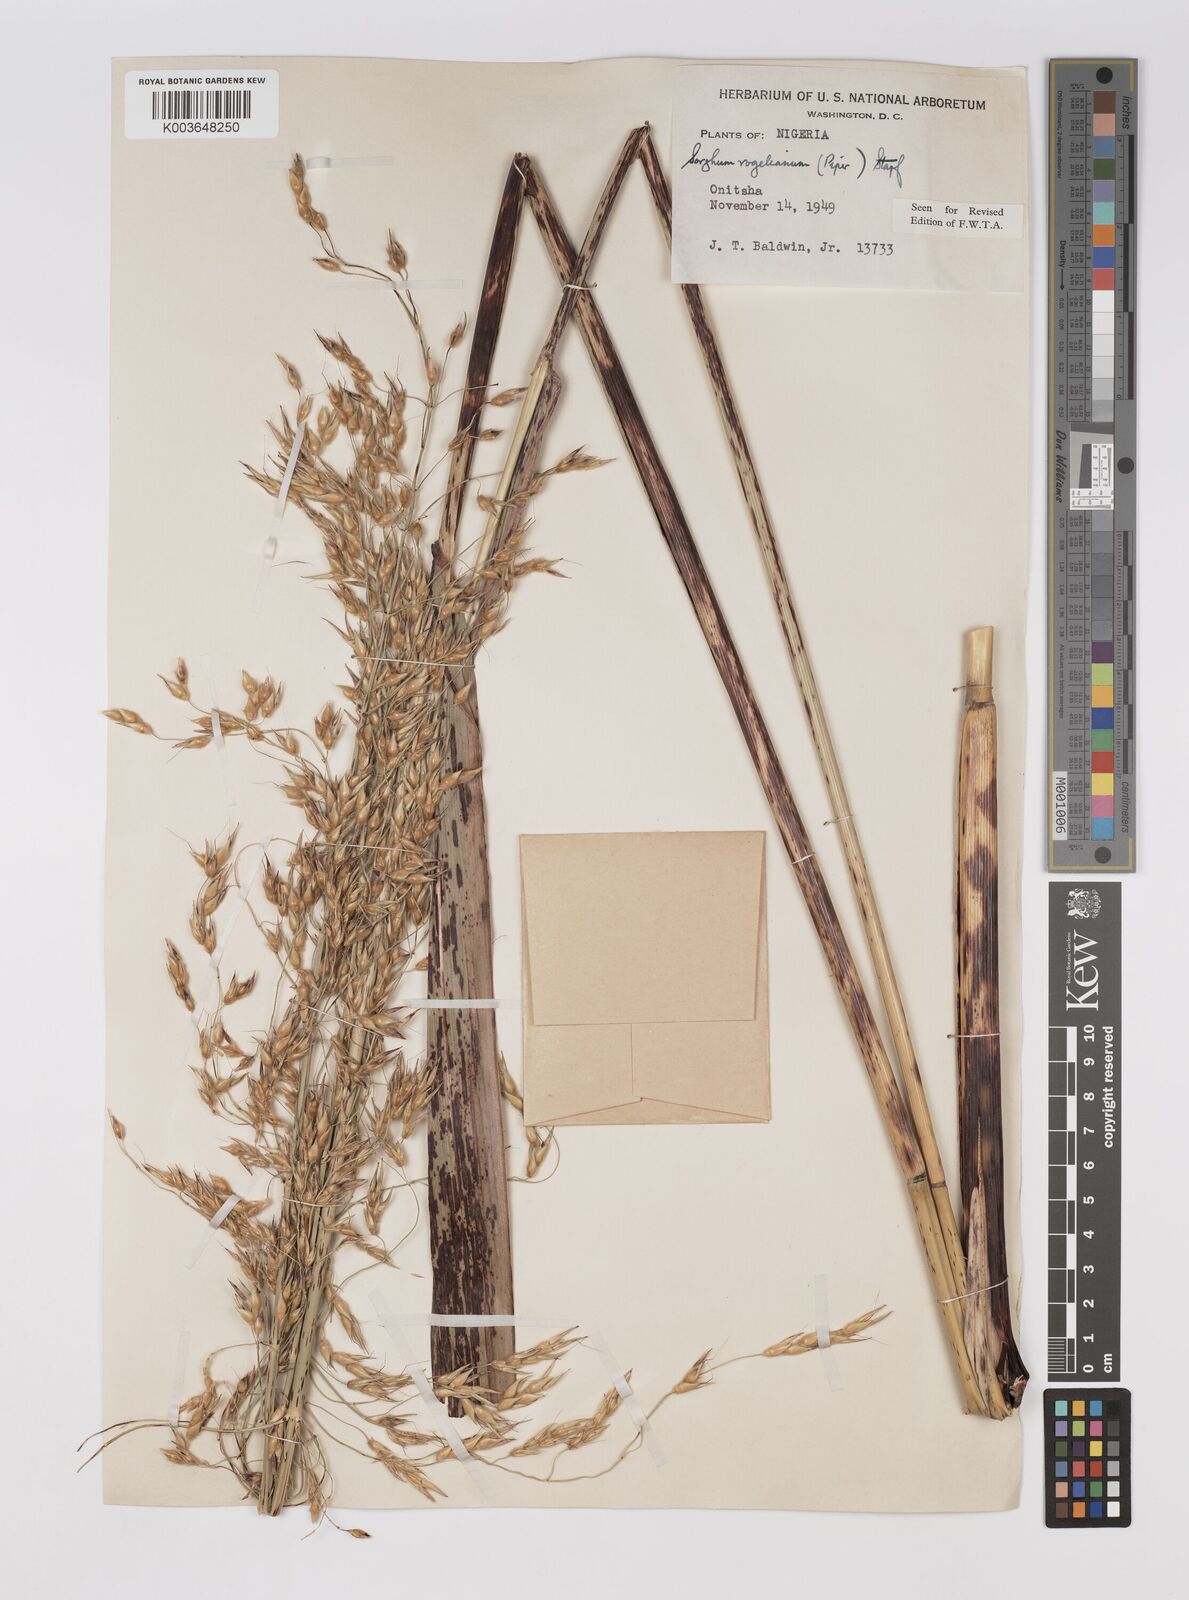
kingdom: Plantae
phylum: Tracheophyta
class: Liliopsida
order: Poales
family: Poaceae
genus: Sorghum
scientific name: Sorghum arundinaceum
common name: Sorghum
